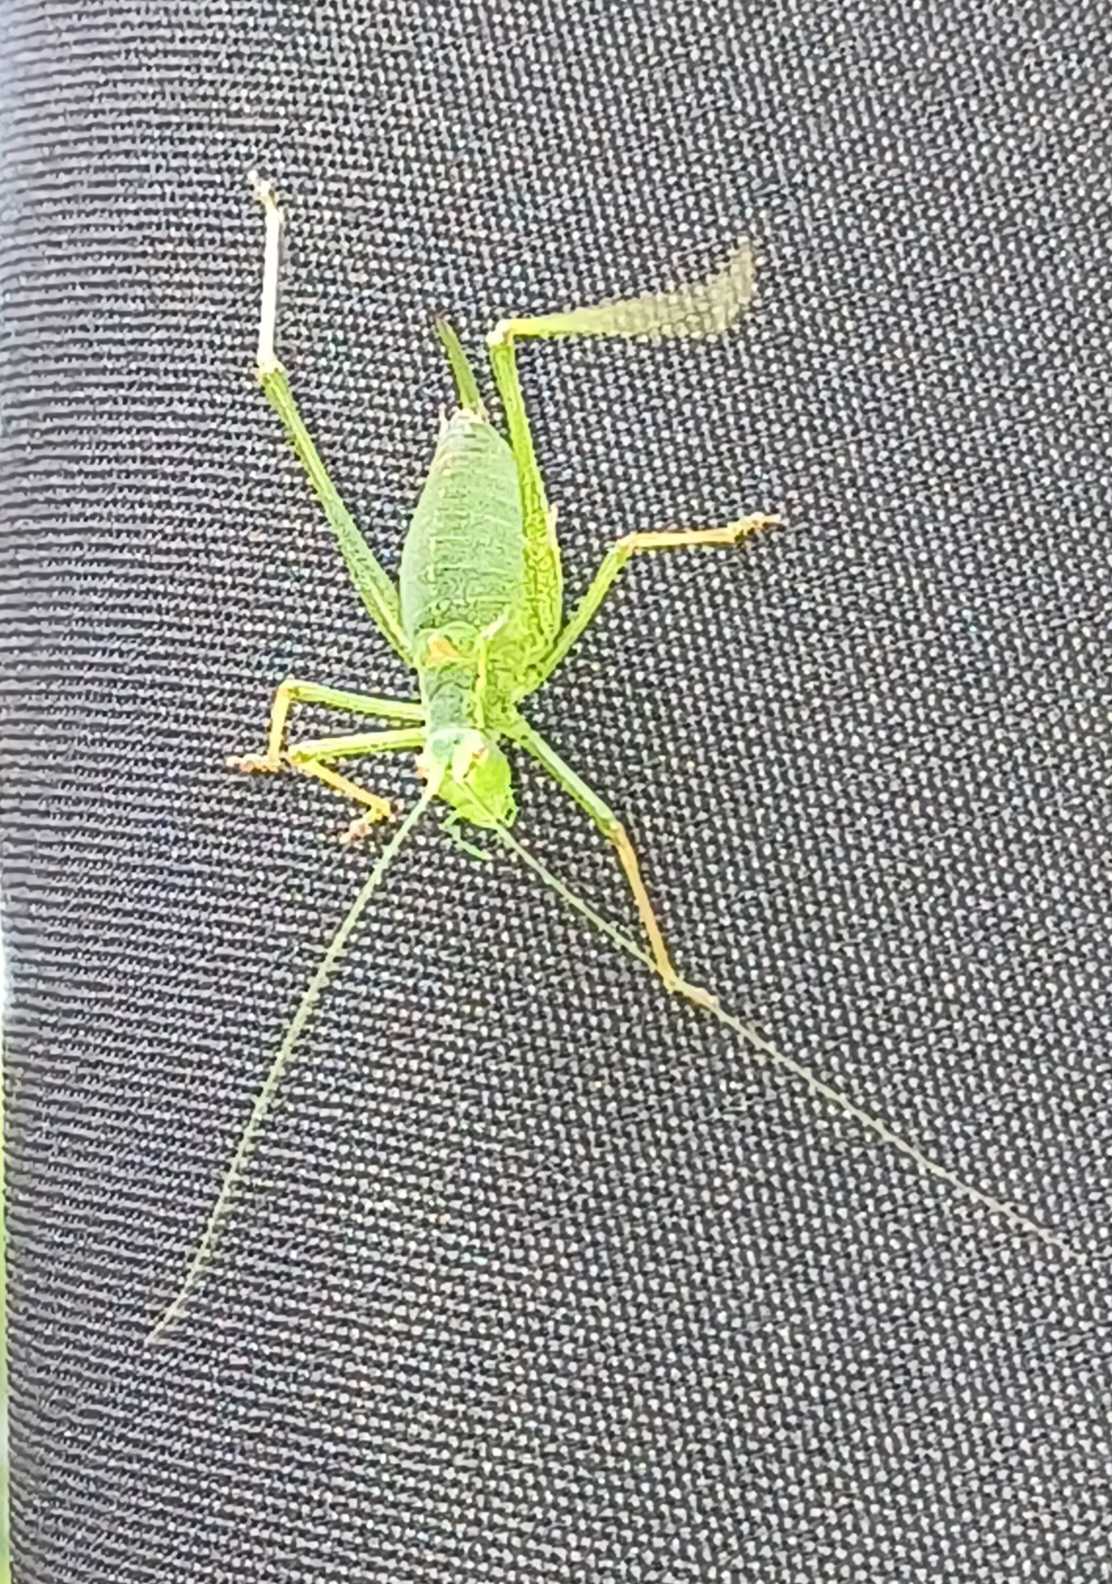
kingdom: Animalia
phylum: Arthropoda
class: Insecta
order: Orthoptera
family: Tettigoniidae
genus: Leptophyes
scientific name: Leptophyes punctatissima
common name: Krumknivgræshoppe
